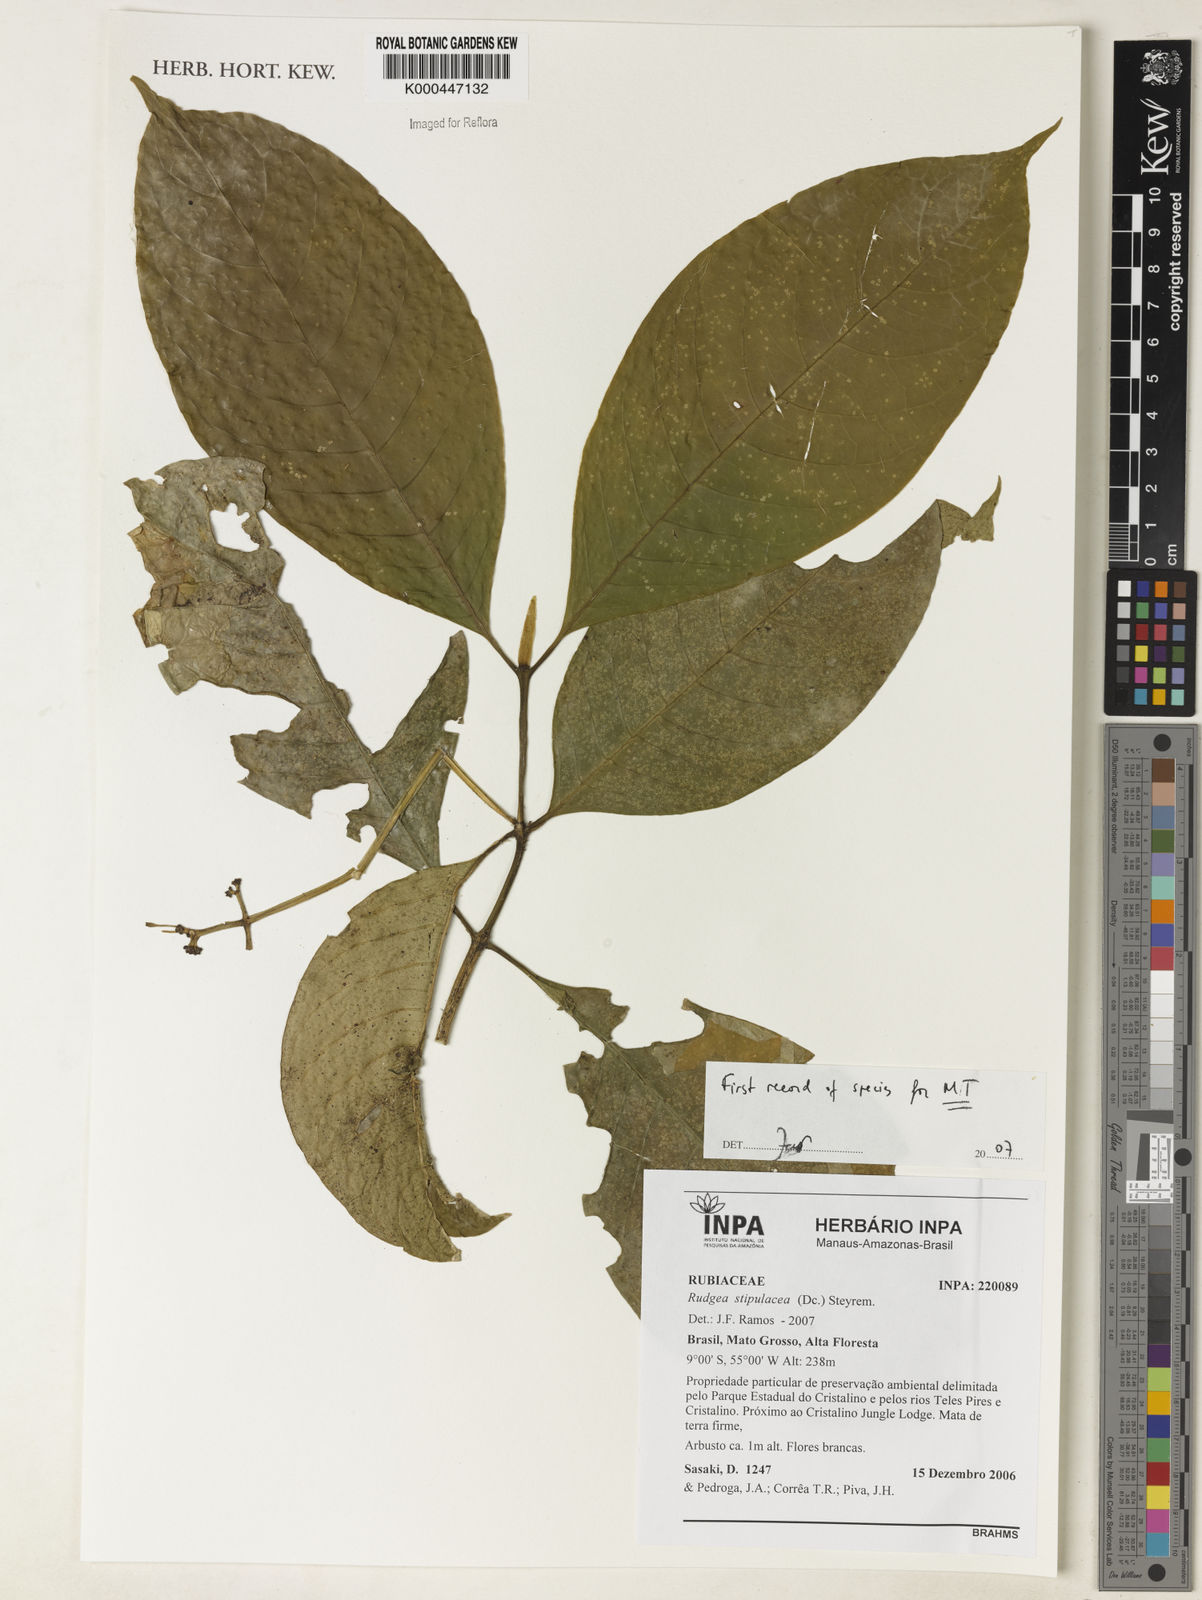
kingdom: Plantae
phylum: Tracheophyta
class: Magnoliopsida
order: Gentianales
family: Rubiaceae
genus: Rudgea
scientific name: Rudgea stipulacea
